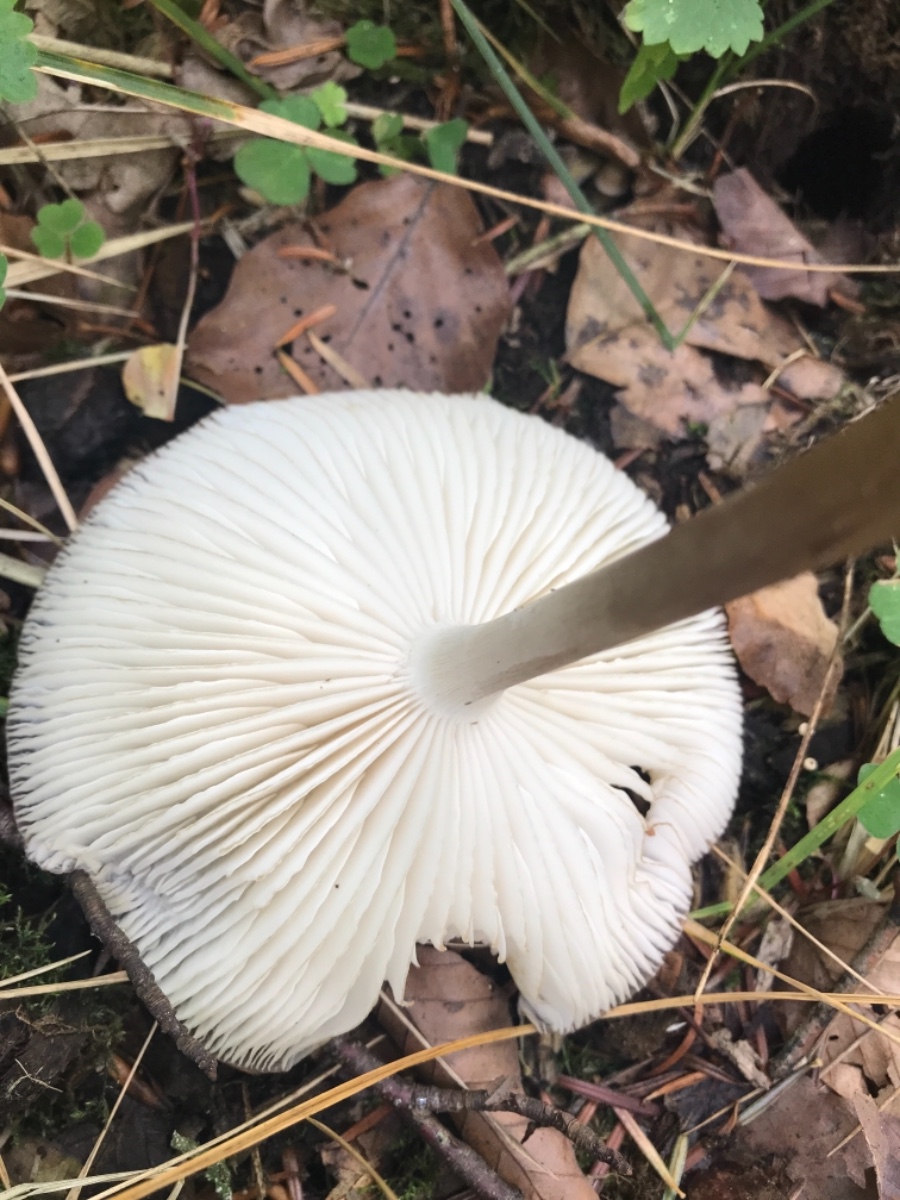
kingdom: Fungi
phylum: Basidiomycota
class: Agaricomycetes
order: Agaricales
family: Physalacriaceae
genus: Hymenopellis
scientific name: Hymenopellis radicata
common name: almindelig pælerodshat
